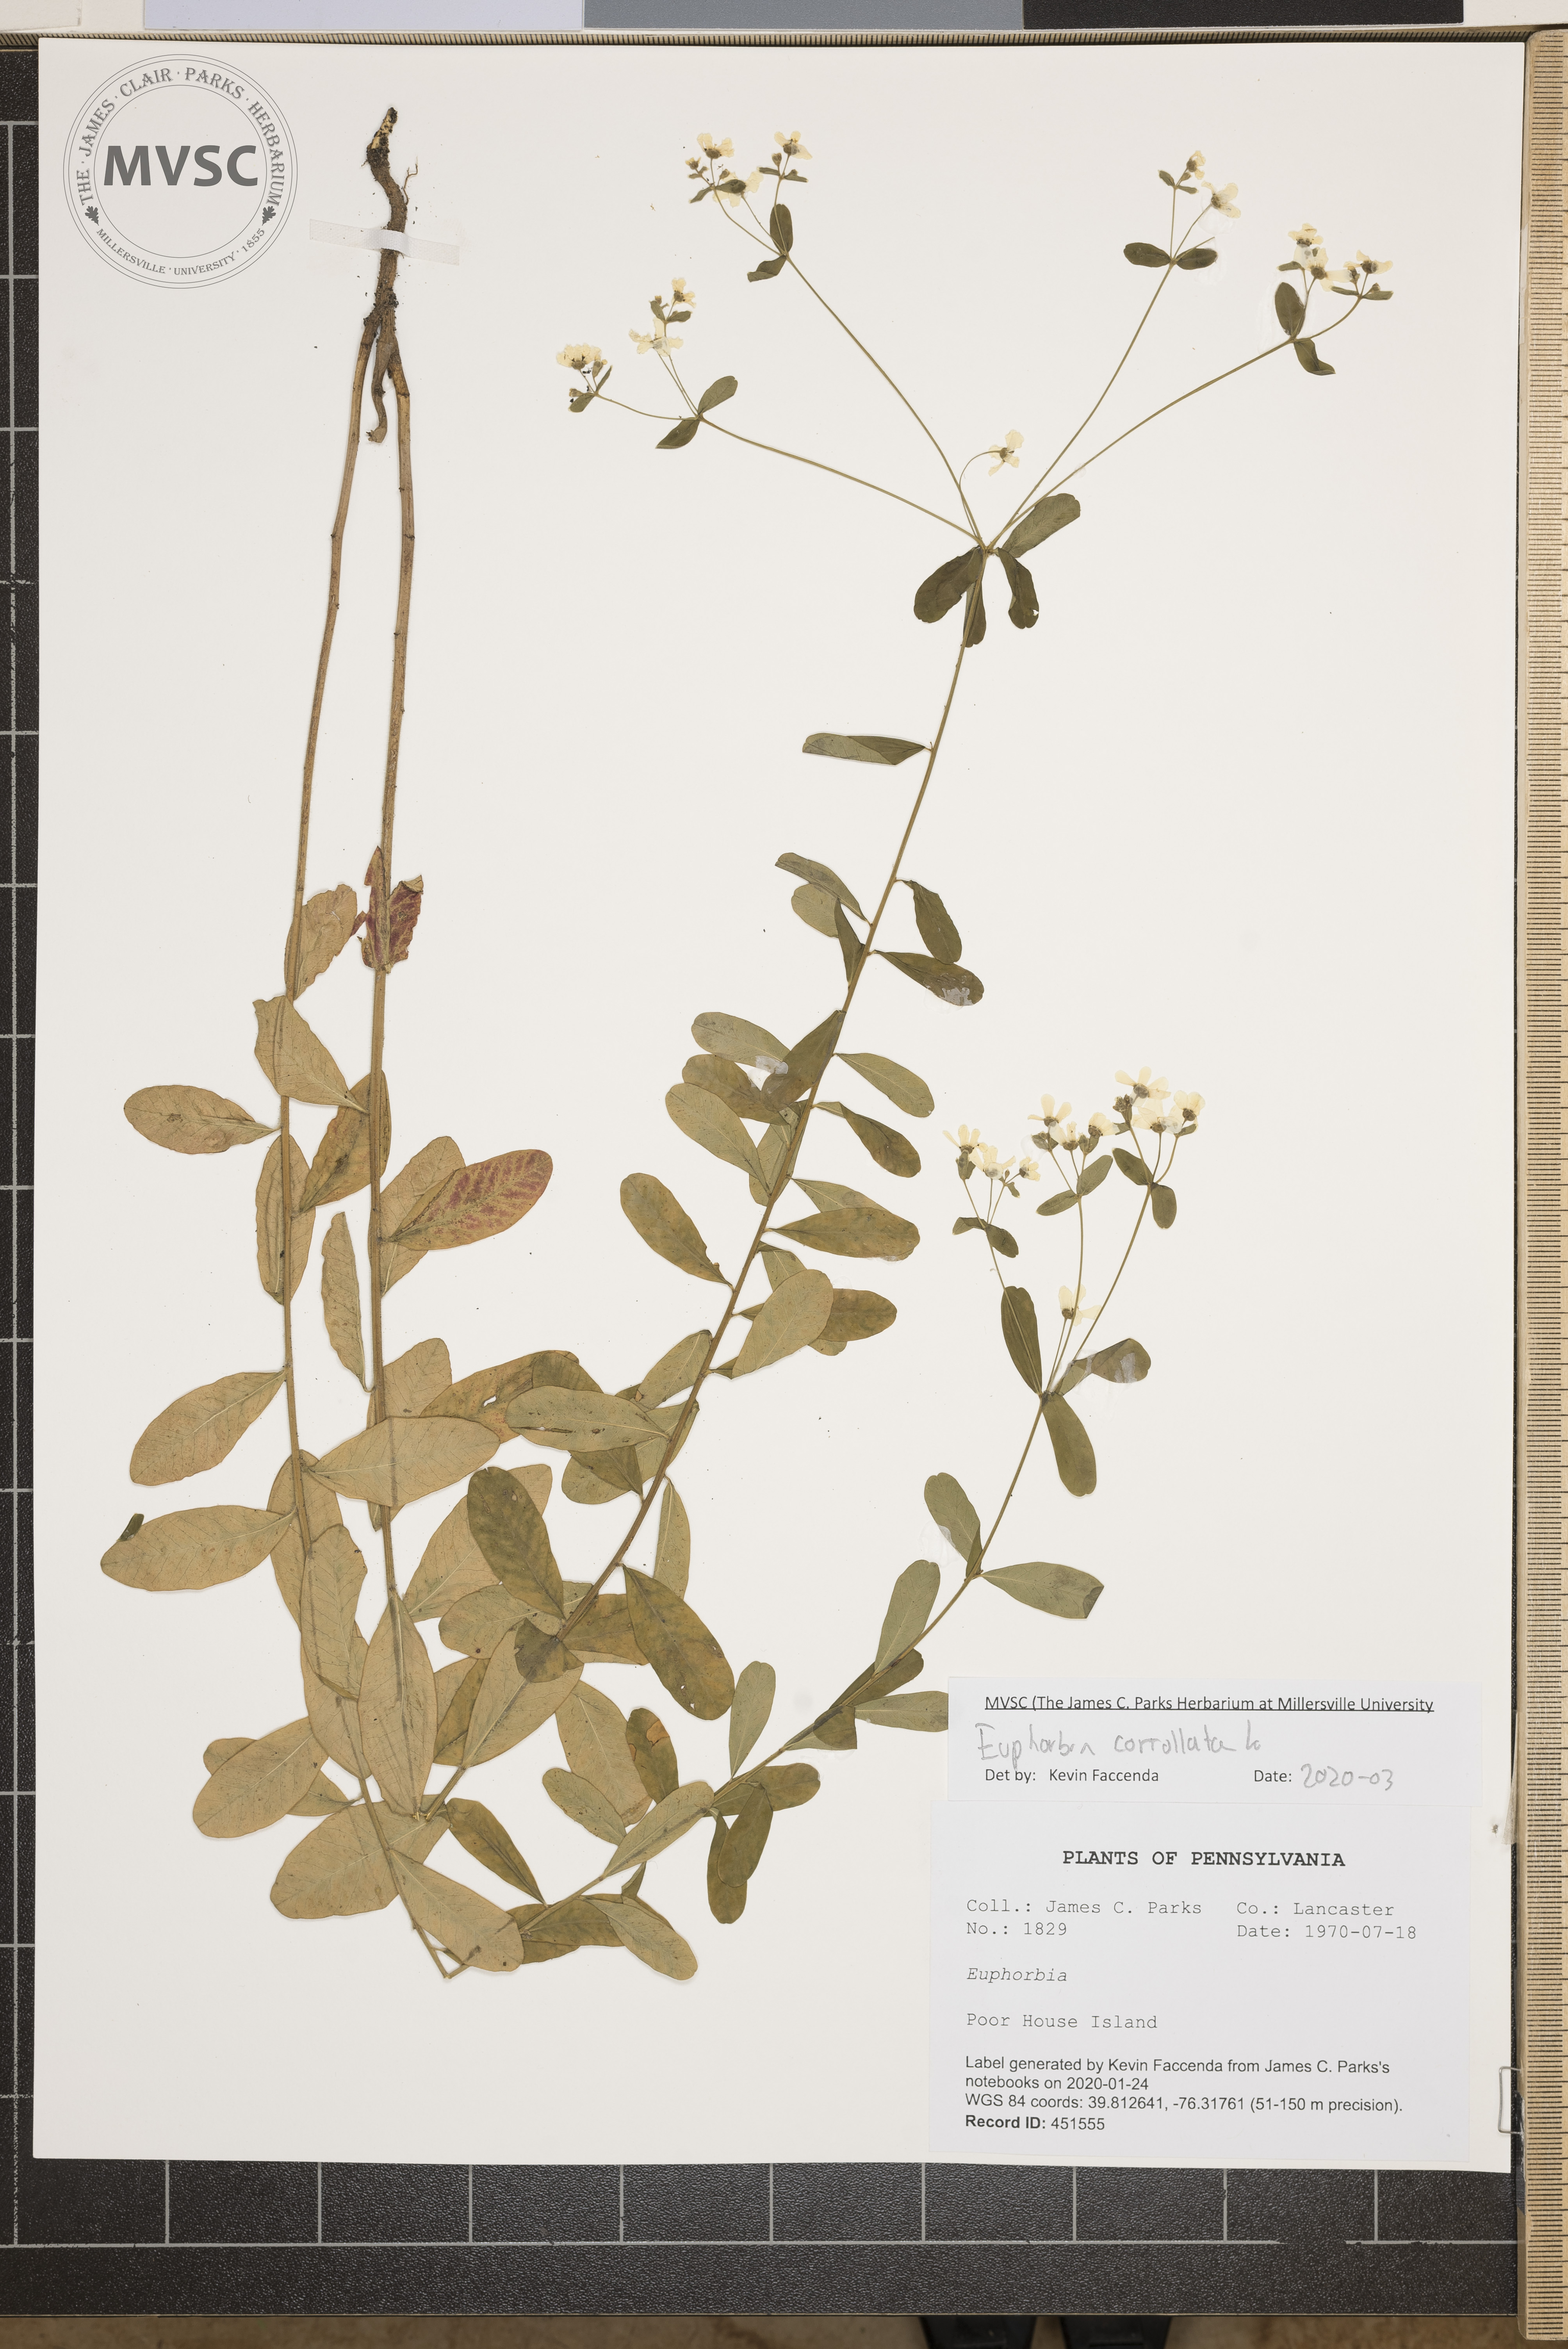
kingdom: Plantae
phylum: Tracheophyta
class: Magnoliopsida
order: Malpighiales
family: Euphorbiaceae
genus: Euphorbia
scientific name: Euphorbia corollata
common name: Flowering spurge
